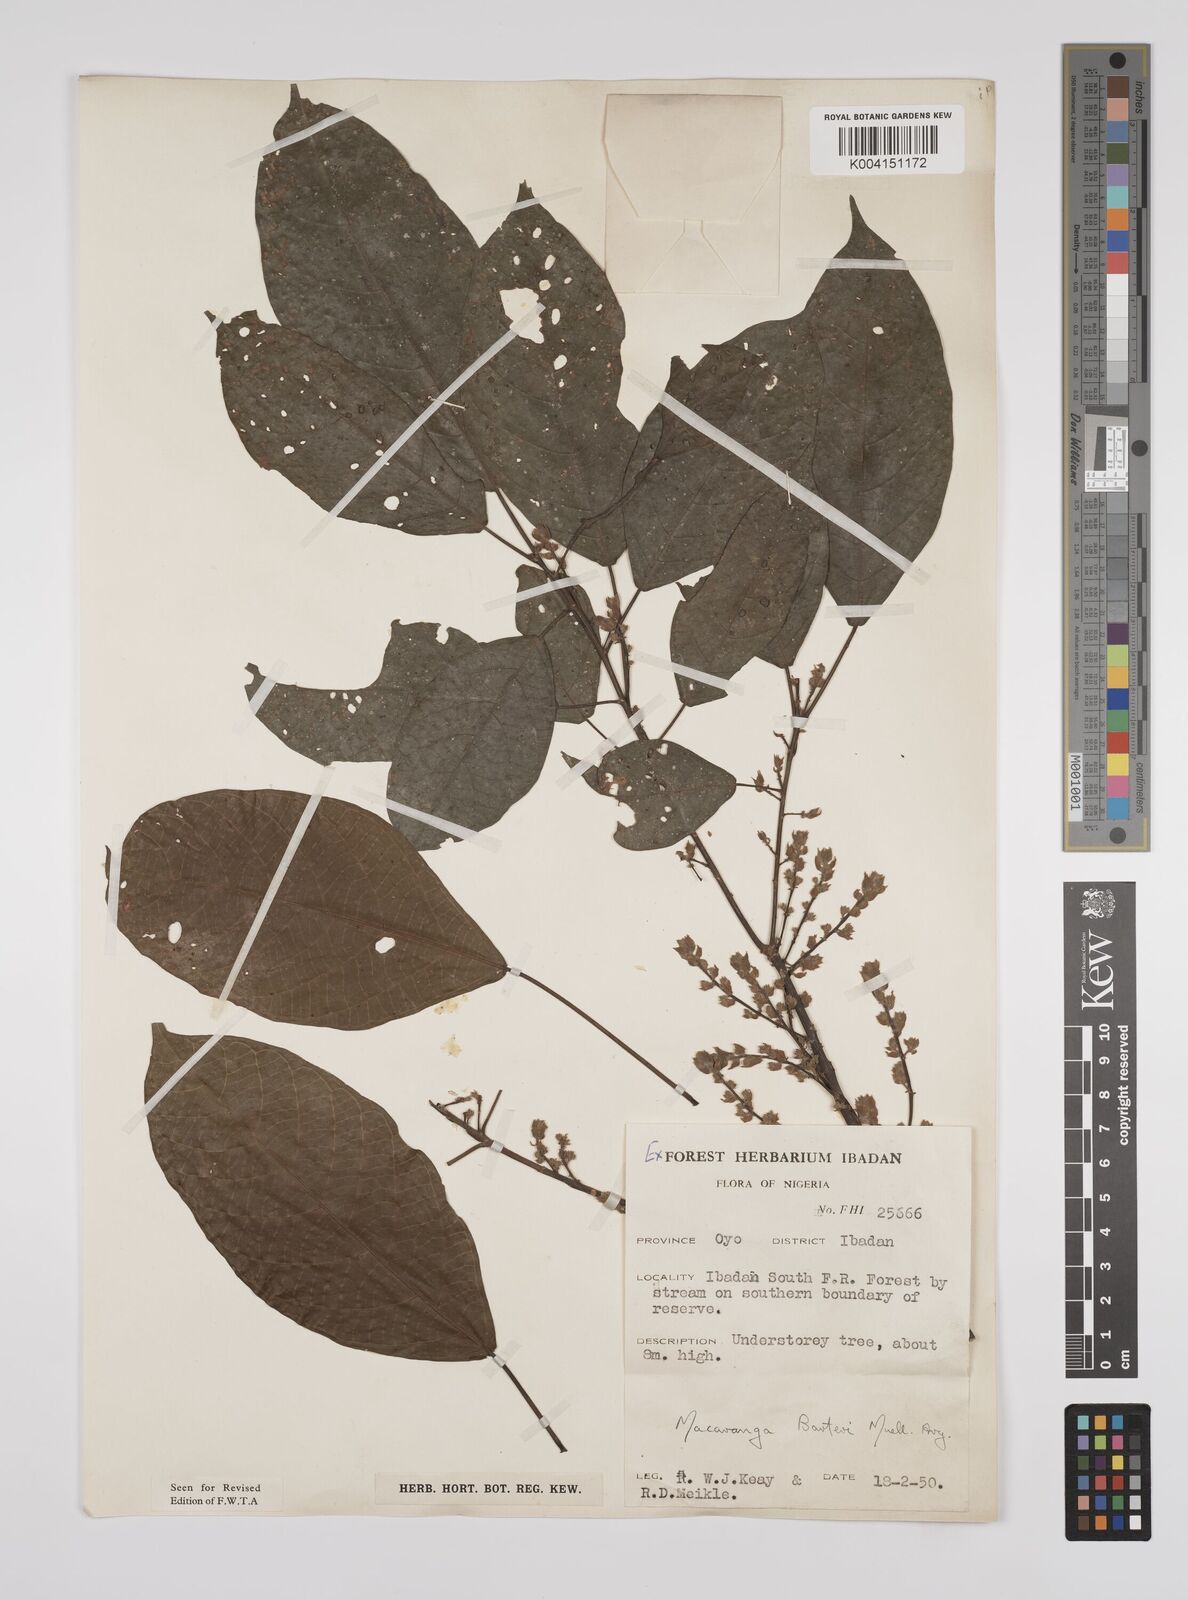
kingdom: Plantae
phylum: Tracheophyta
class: Magnoliopsida
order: Malpighiales
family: Euphorbiaceae
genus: Macaranga
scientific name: Macaranga barteri
